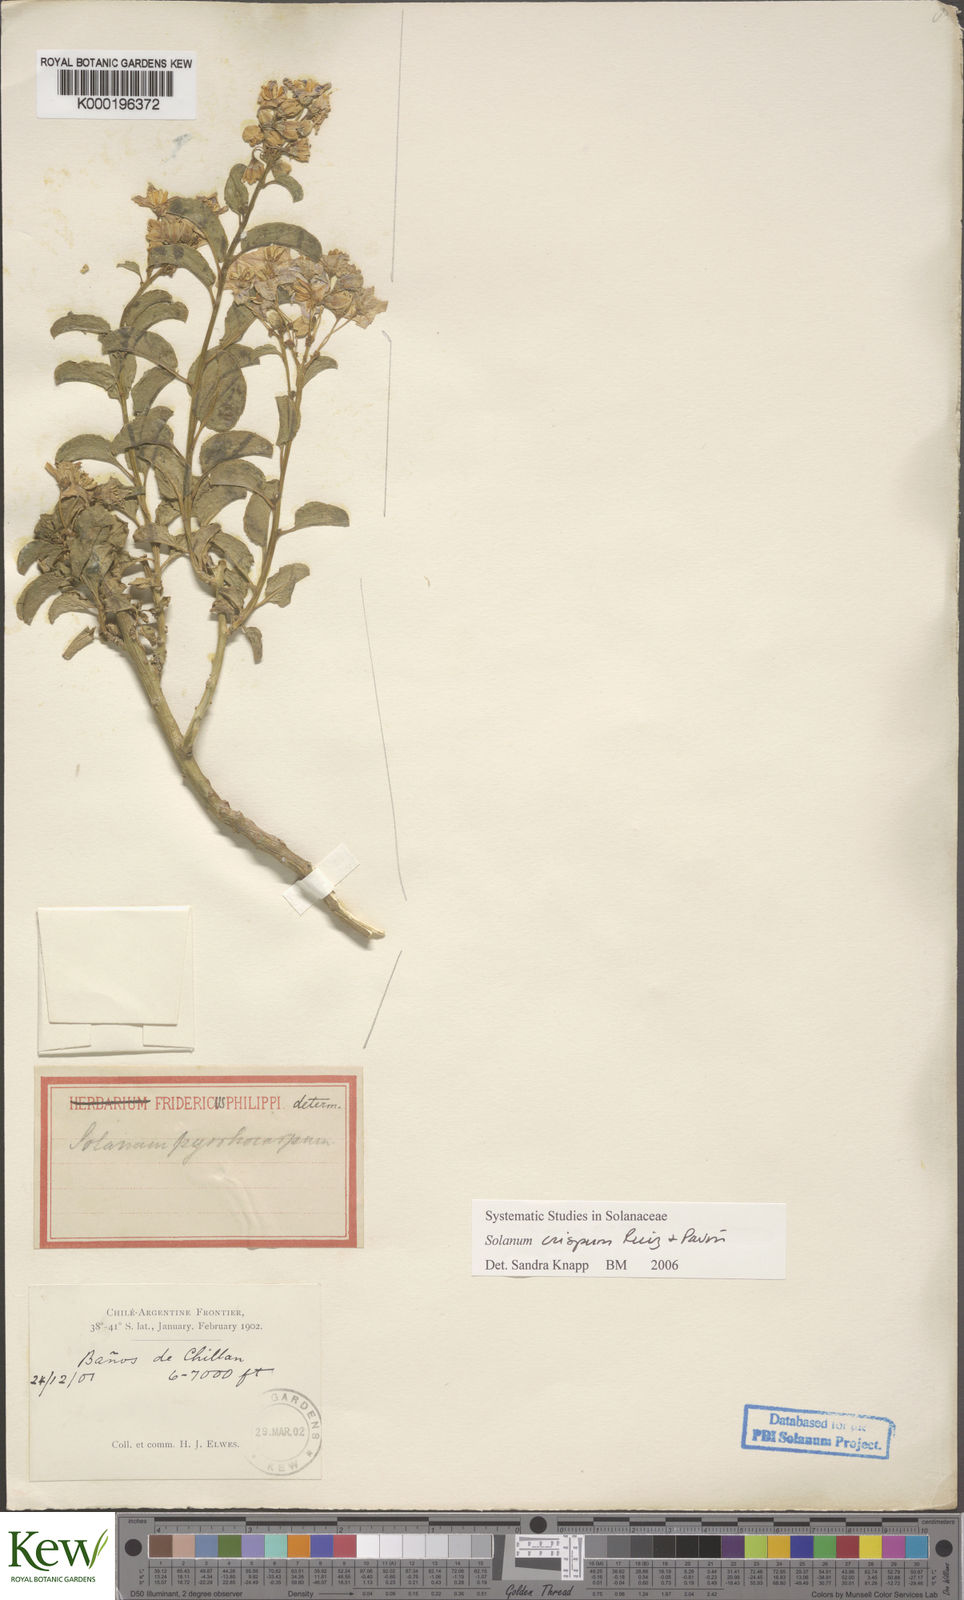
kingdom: Plantae
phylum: Tracheophyta
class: Magnoliopsida
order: Solanales
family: Solanaceae
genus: Solanum
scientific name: Solanum crispum
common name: Chilean nightshade
